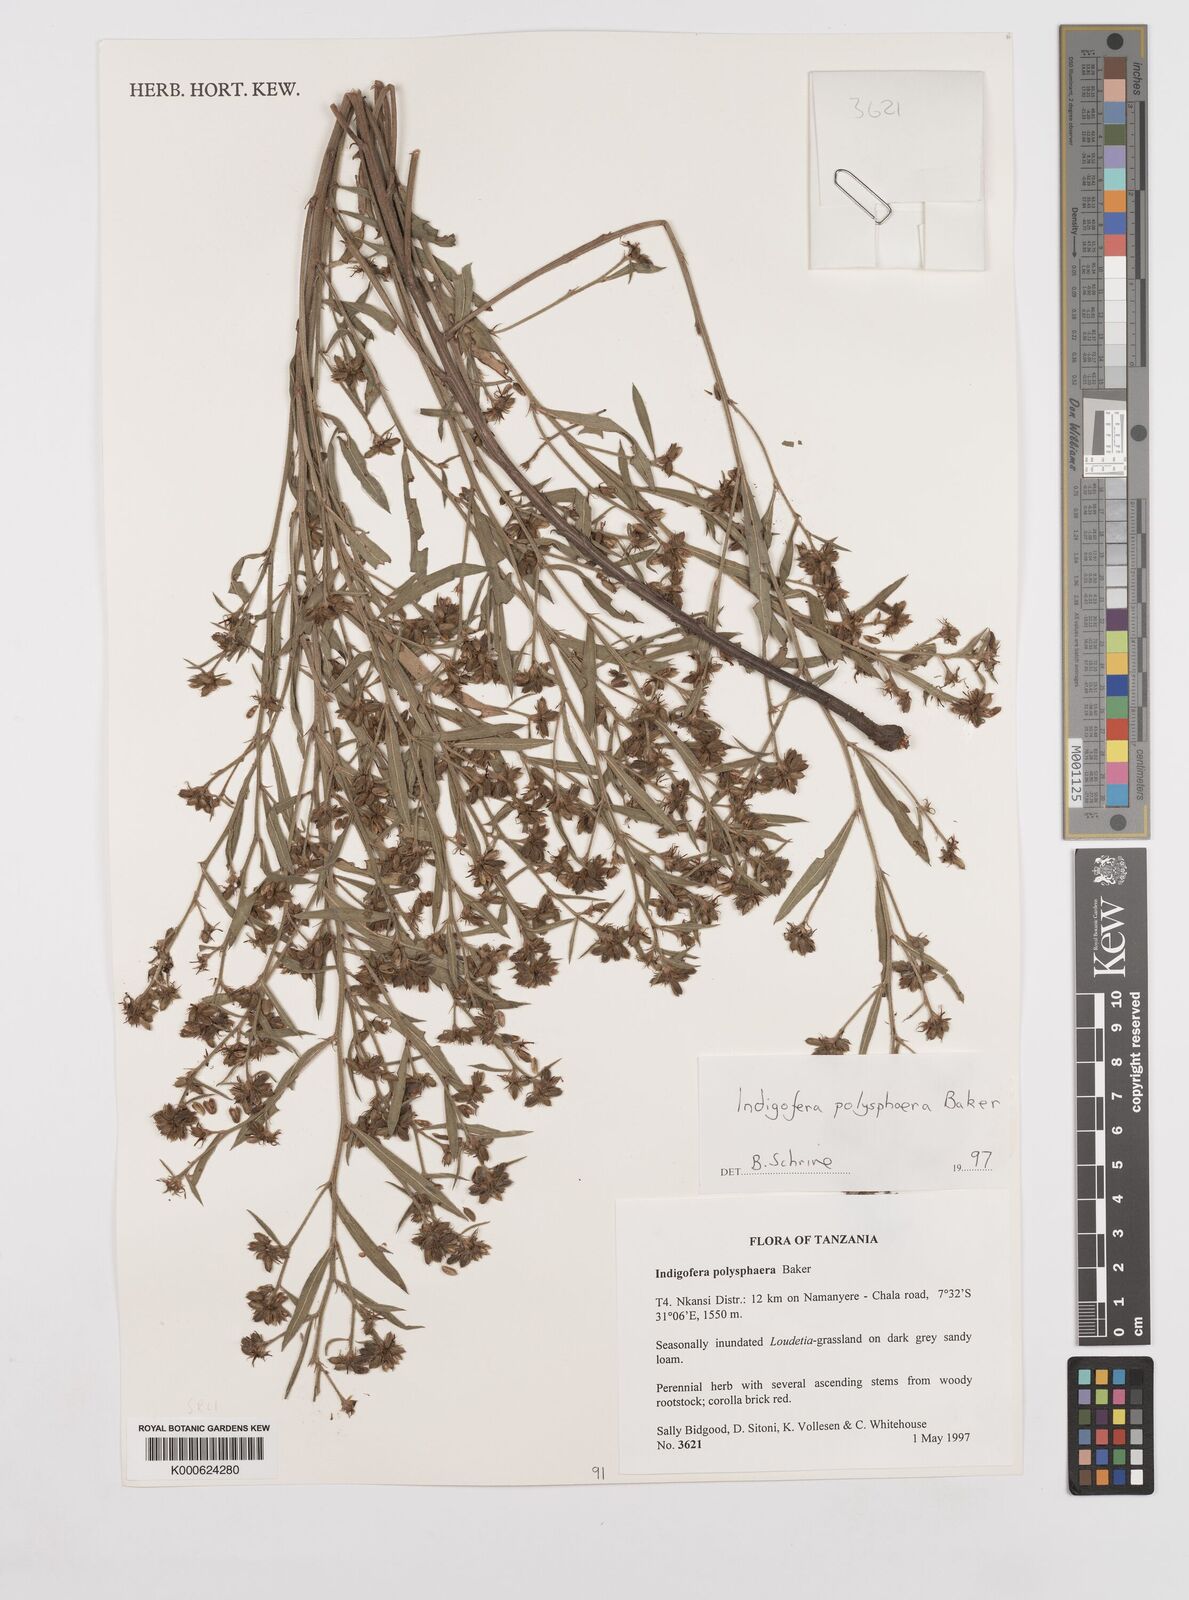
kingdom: Plantae
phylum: Tracheophyta
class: Magnoliopsida
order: Fabales
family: Fabaceae
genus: Indigofera
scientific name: Indigofera polysphaera
